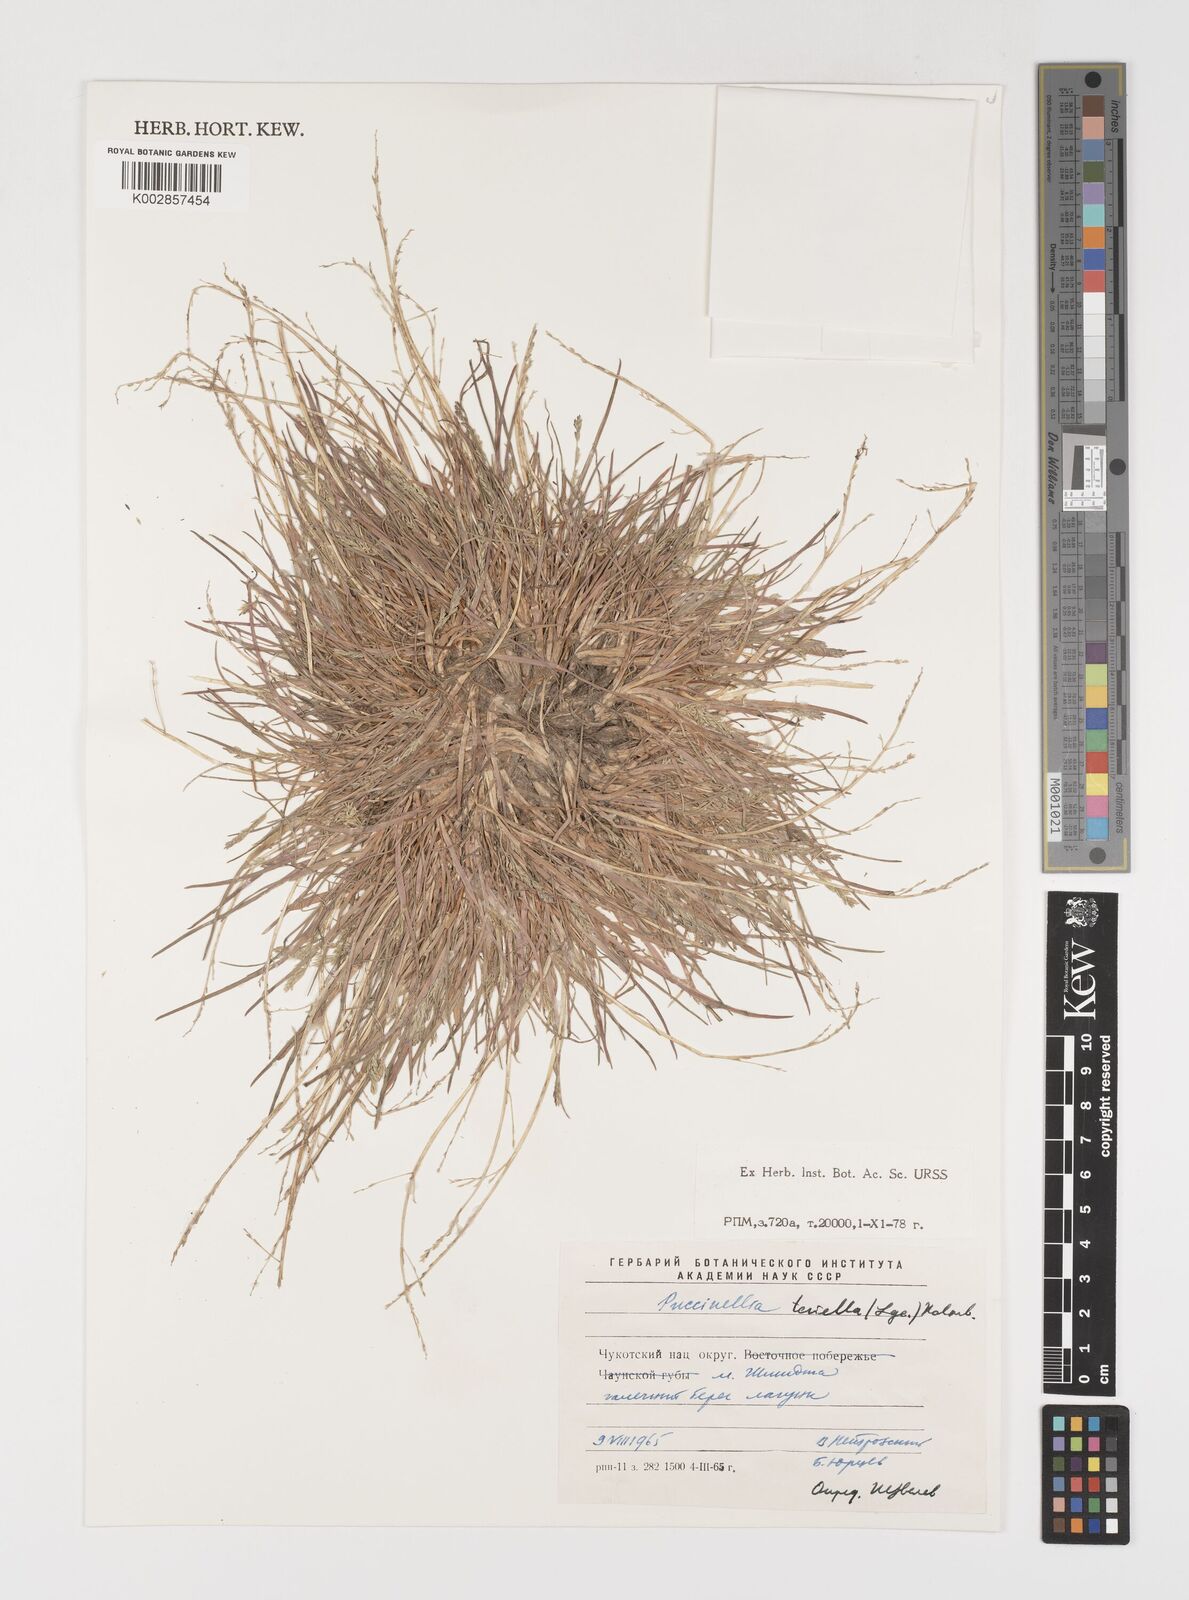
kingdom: Plantae
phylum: Tracheophyta
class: Liliopsida
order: Poales
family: Poaceae
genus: Puccinellia
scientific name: Puccinellia tenella
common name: Tundra alkaligrass
